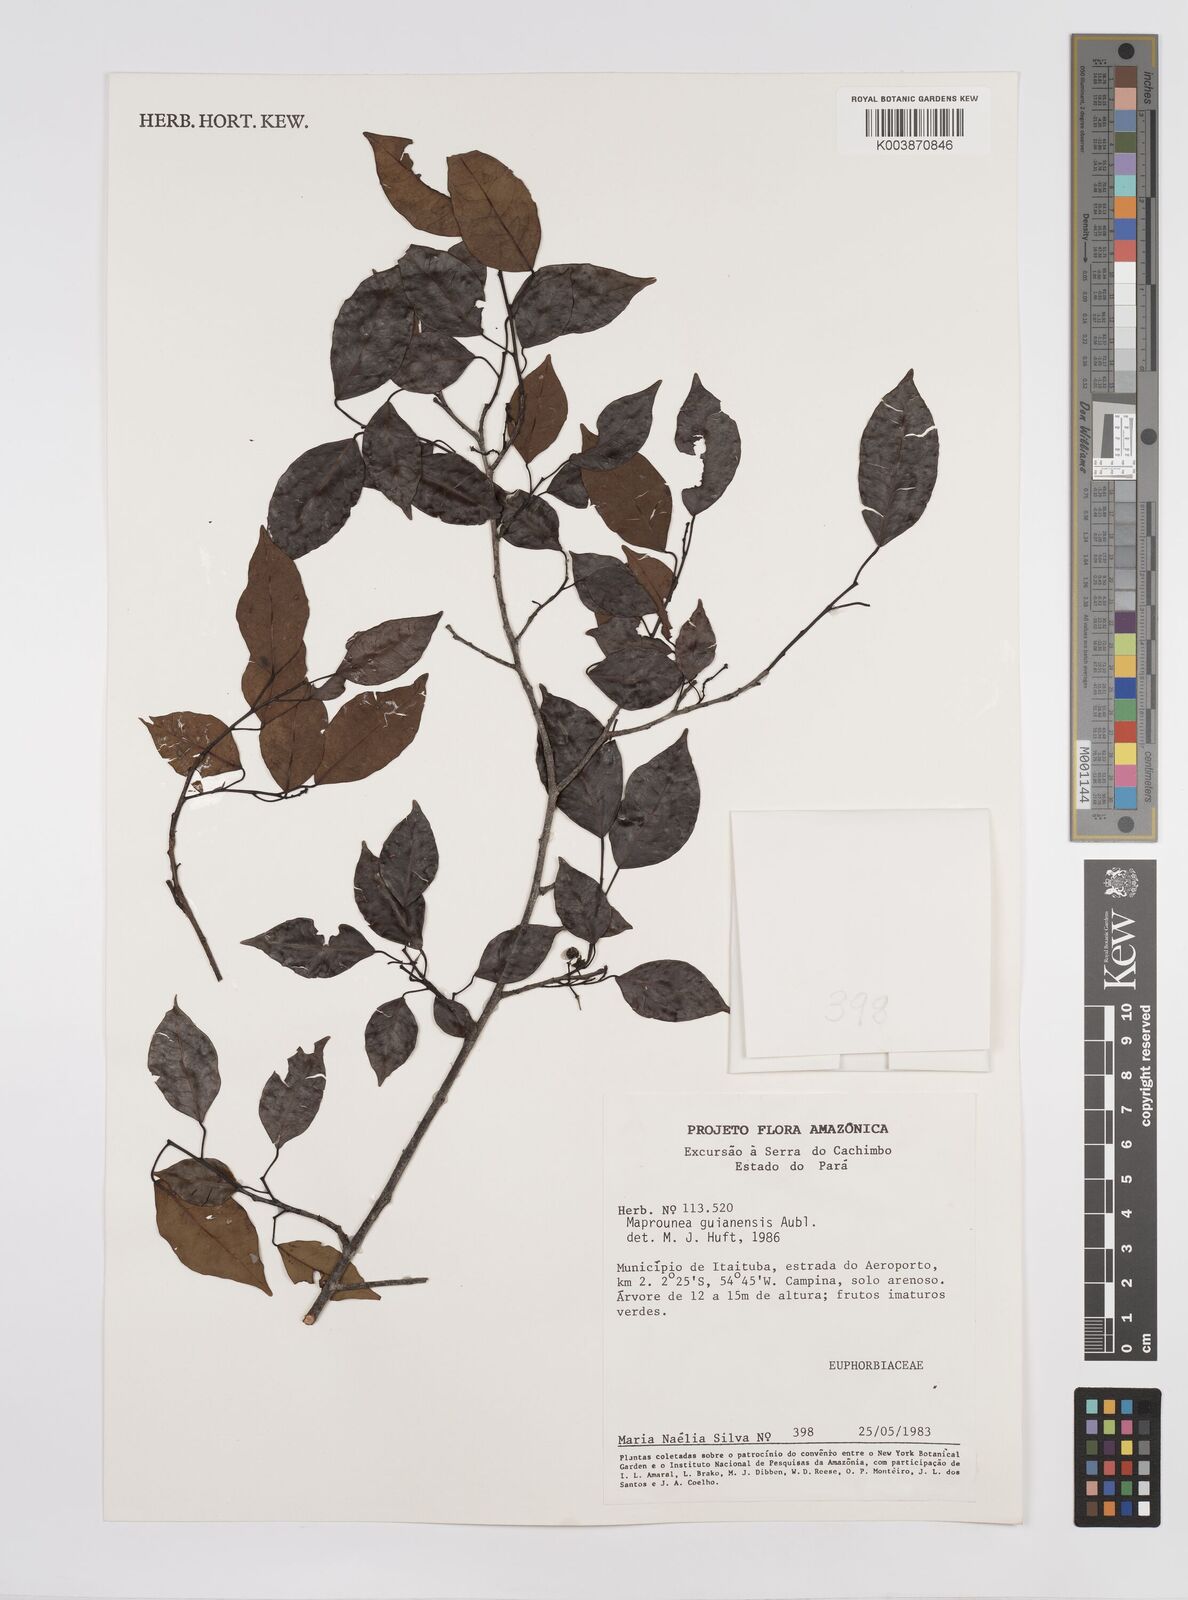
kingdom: Plantae
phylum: Tracheophyta
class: Magnoliopsida
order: Malpighiales
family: Euphorbiaceae
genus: Maprounea
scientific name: Maprounea guianensis
